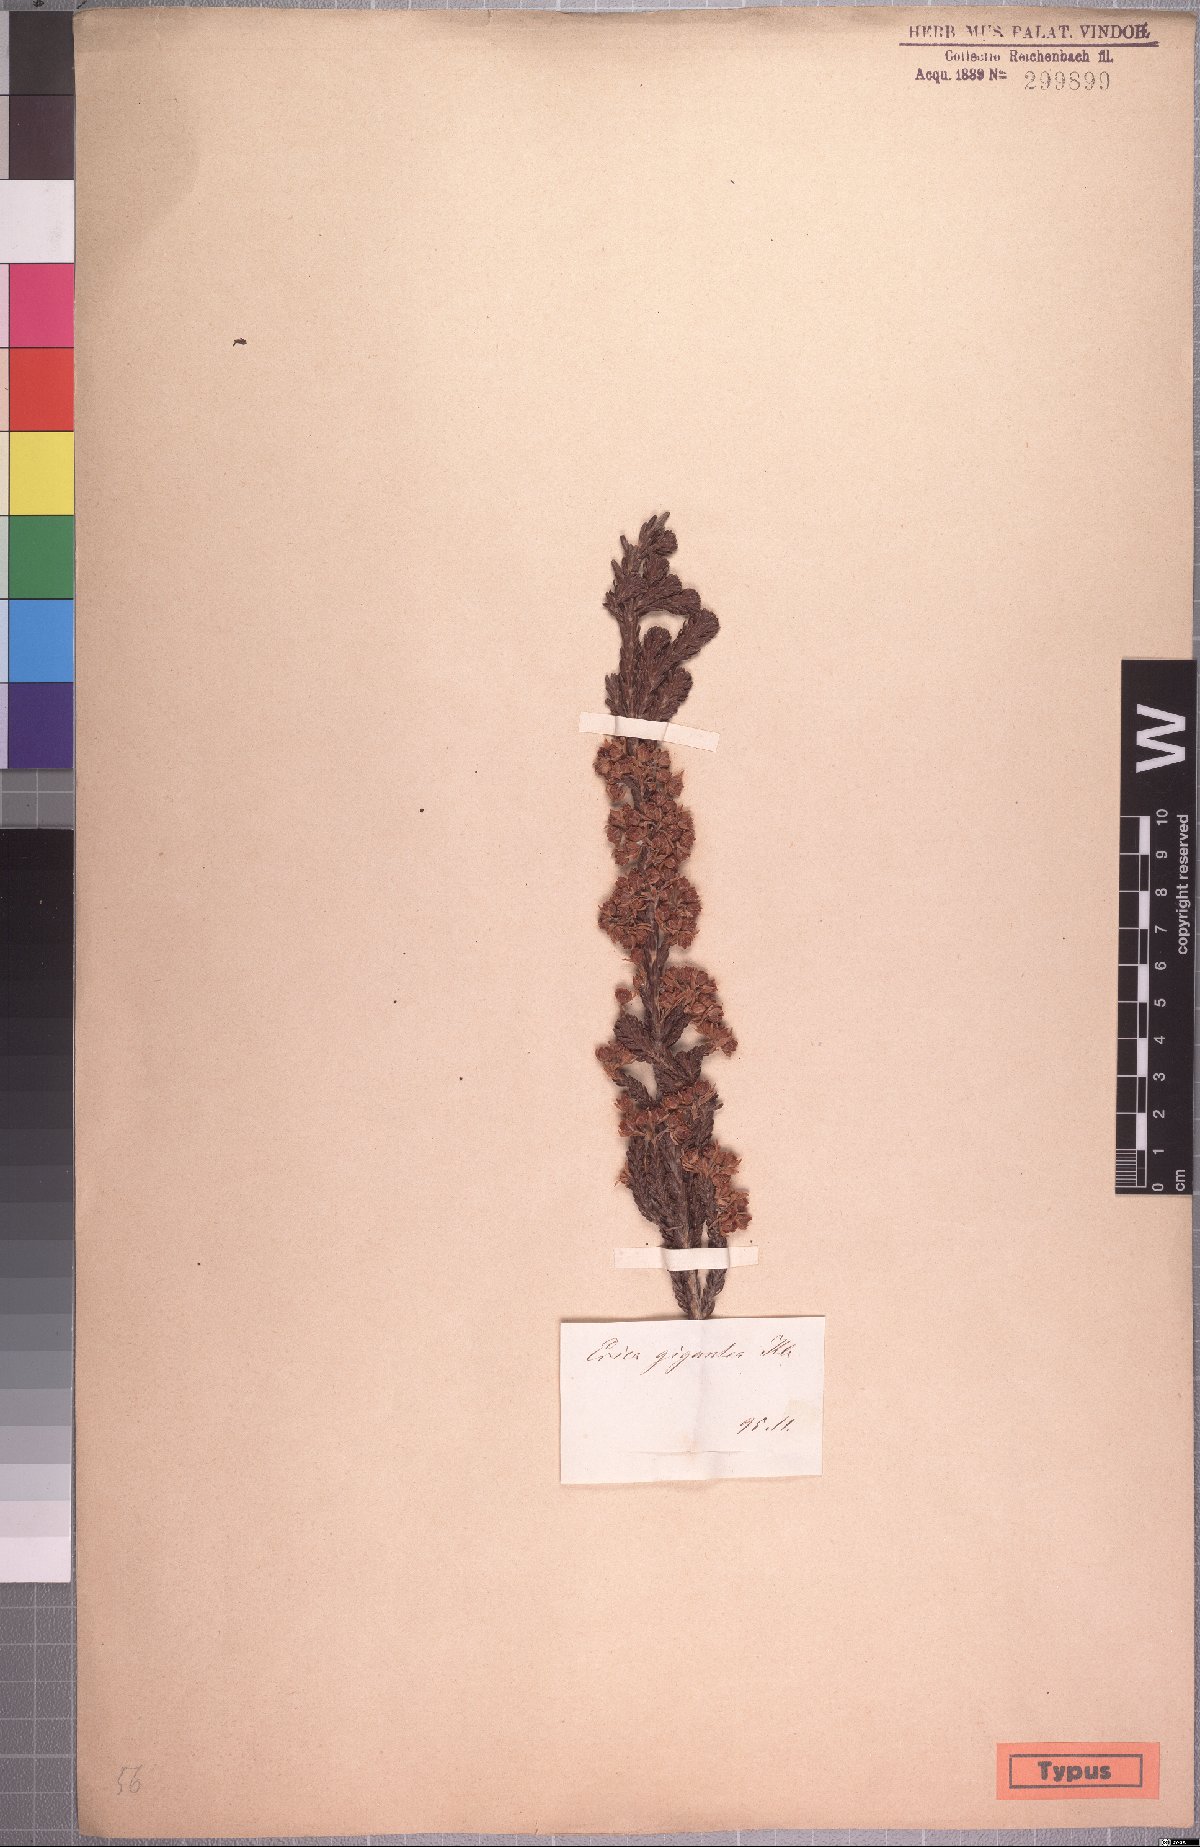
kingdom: Plantae
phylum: Tracheophyta
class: Magnoliopsida
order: Ericales
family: Ericaceae
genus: Erica
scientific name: Erica gigantea
